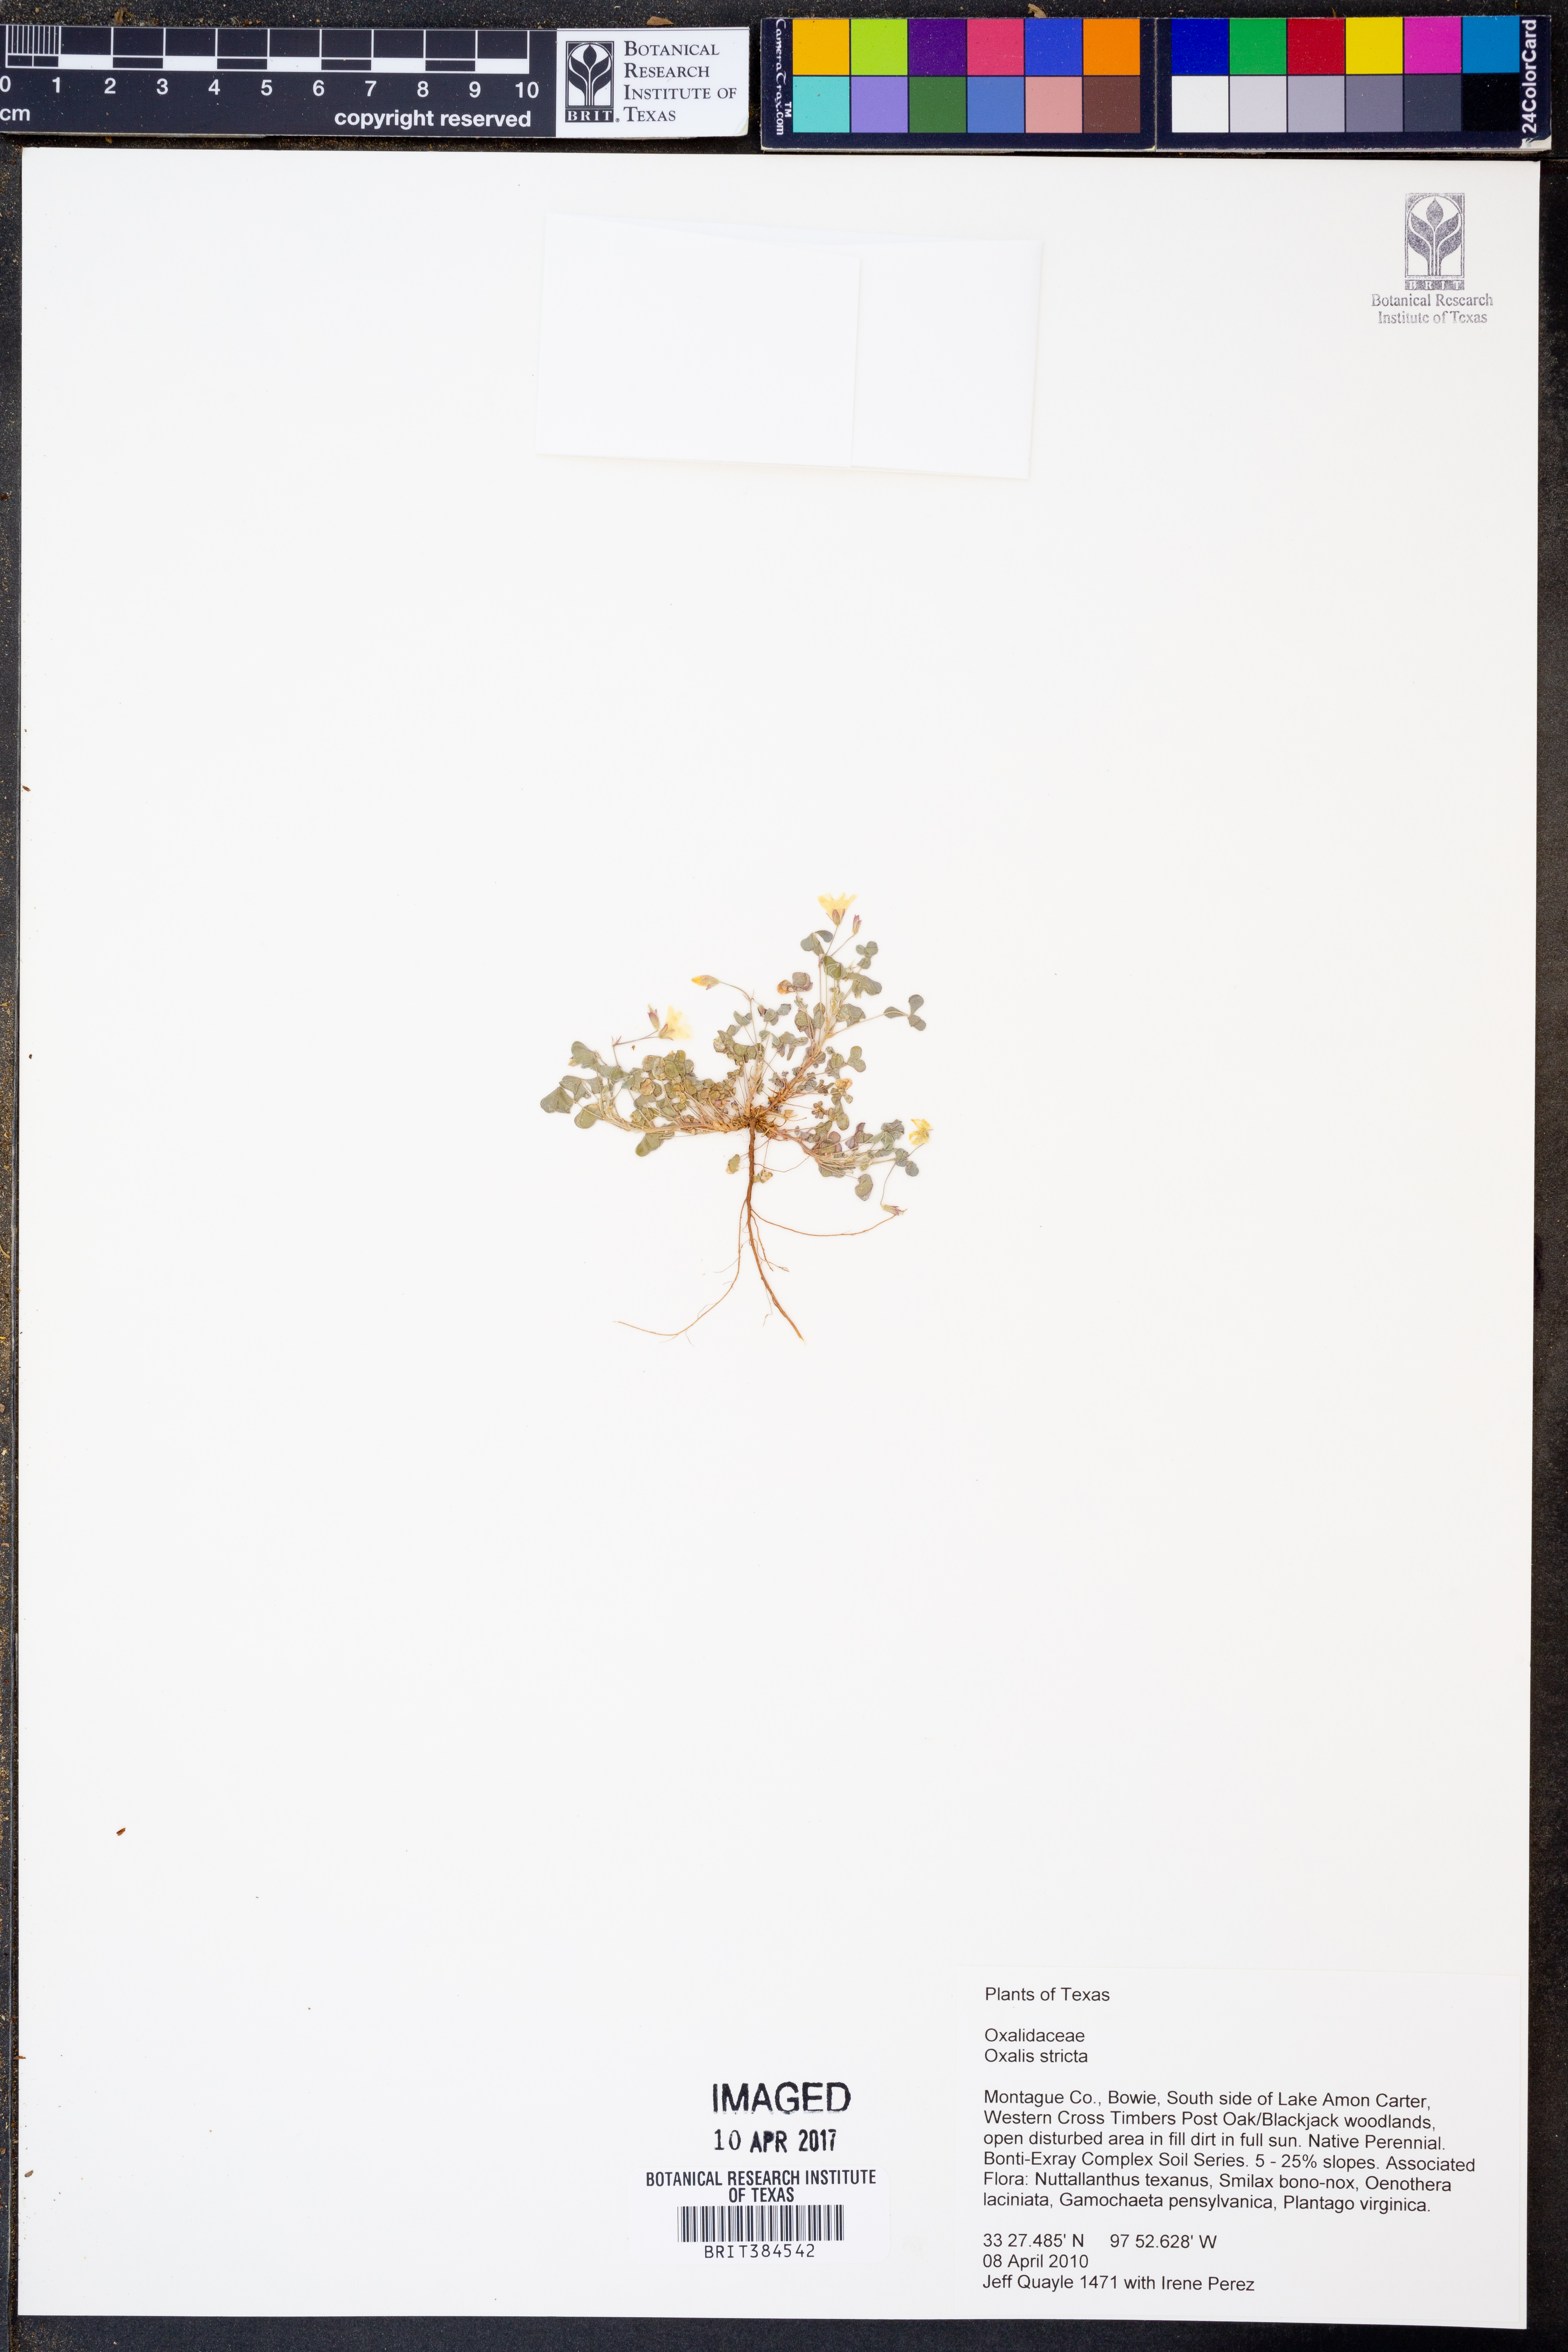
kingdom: Plantae
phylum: Tracheophyta
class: Magnoliopsida
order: Oxalidales
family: Oxalidaceae
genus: Oxalis
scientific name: Oxalis stricta
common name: Upright yellow-sorrel
